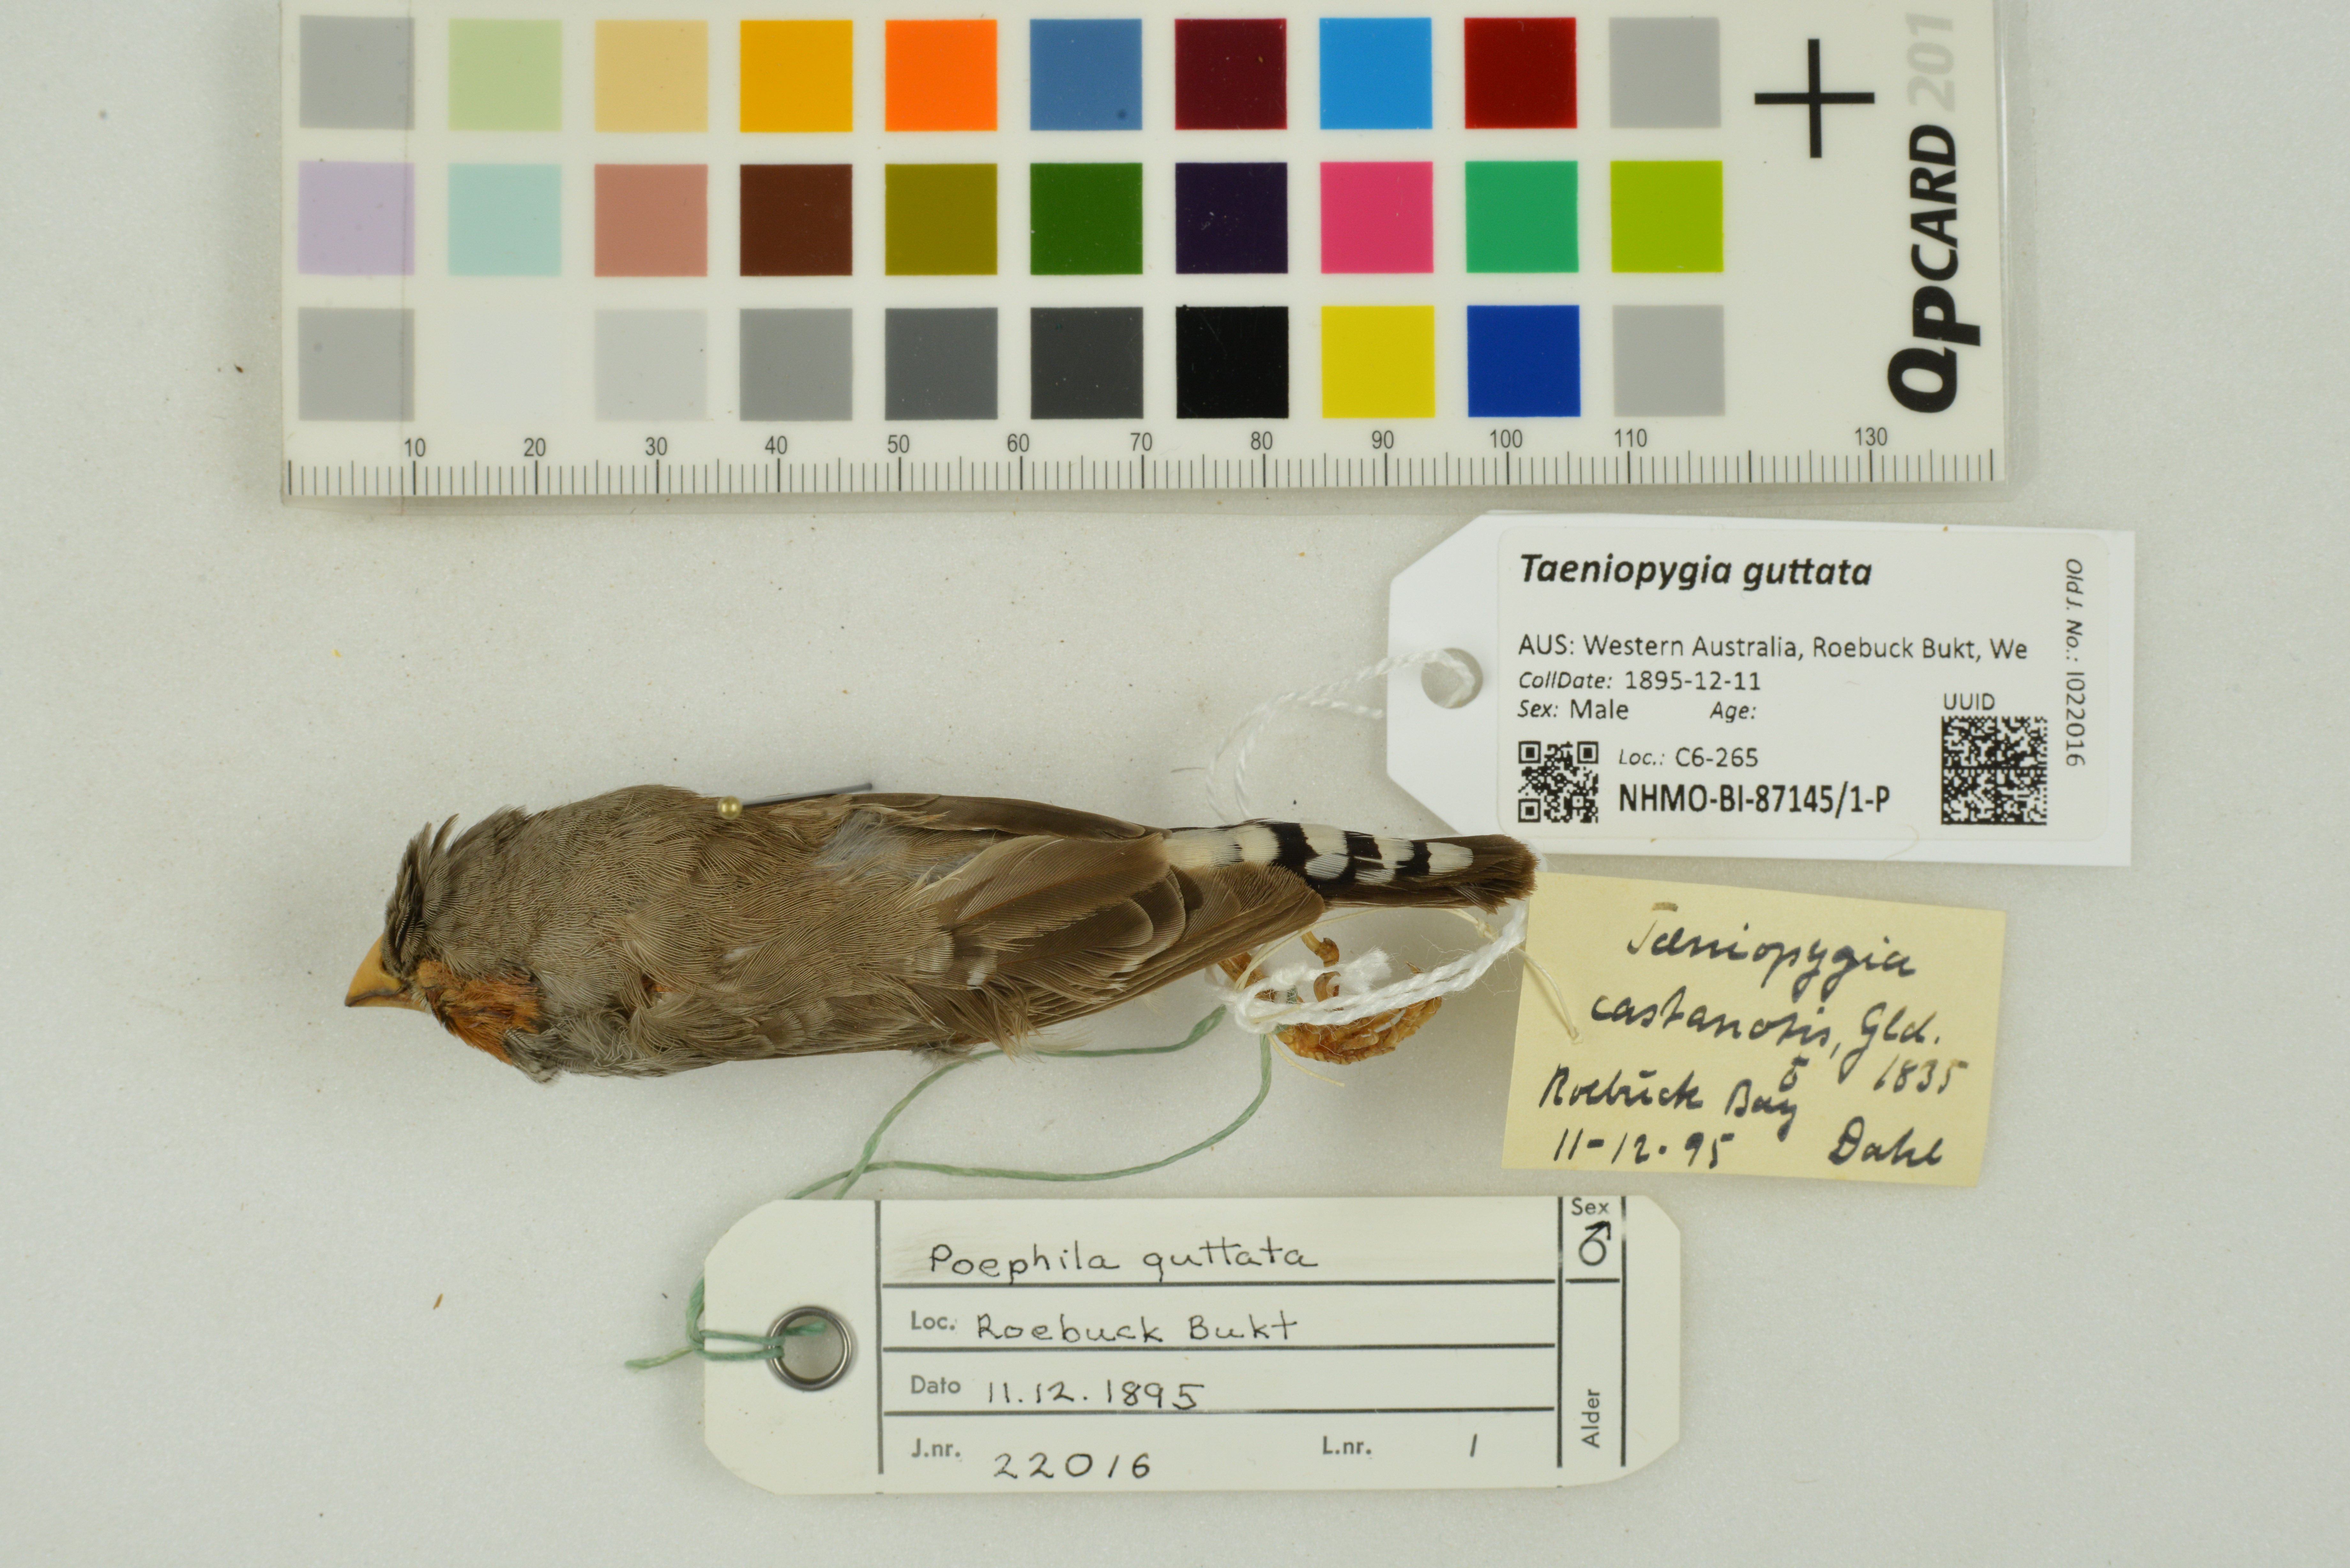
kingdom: Animalia
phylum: Chordata
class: Aves
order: Passeriformes
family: Estrildidae
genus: Taeniopygia
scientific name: Taeniopygia guttata
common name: Zebra finch
